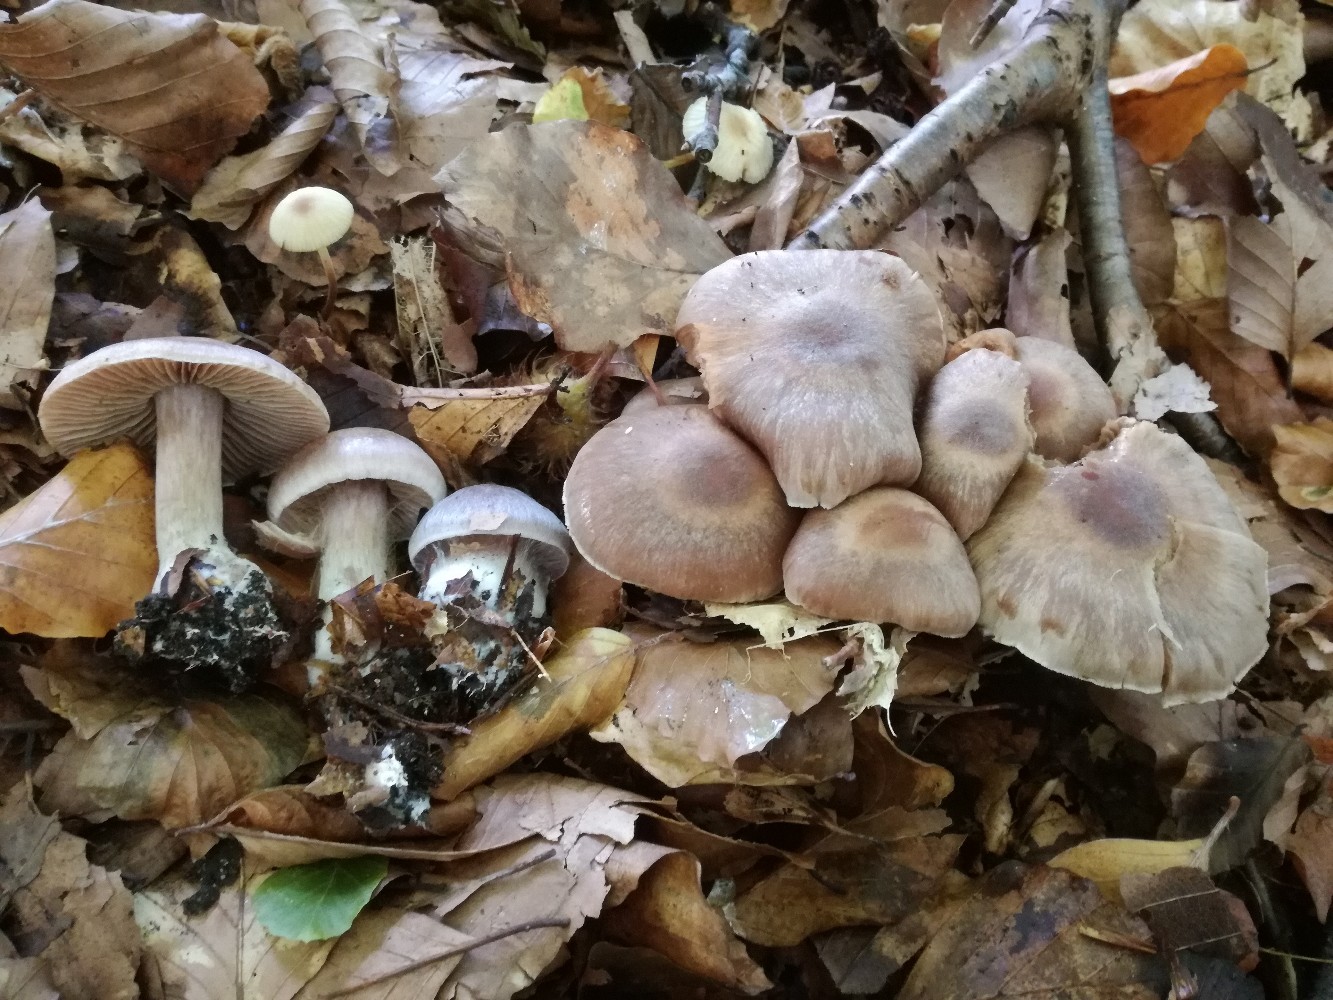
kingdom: Fungi
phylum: Basidiomycota
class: Agaricomycetes
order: Agaricales
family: Cortinariaceae
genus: Cortinarius
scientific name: Cortinarius phaeosmus
